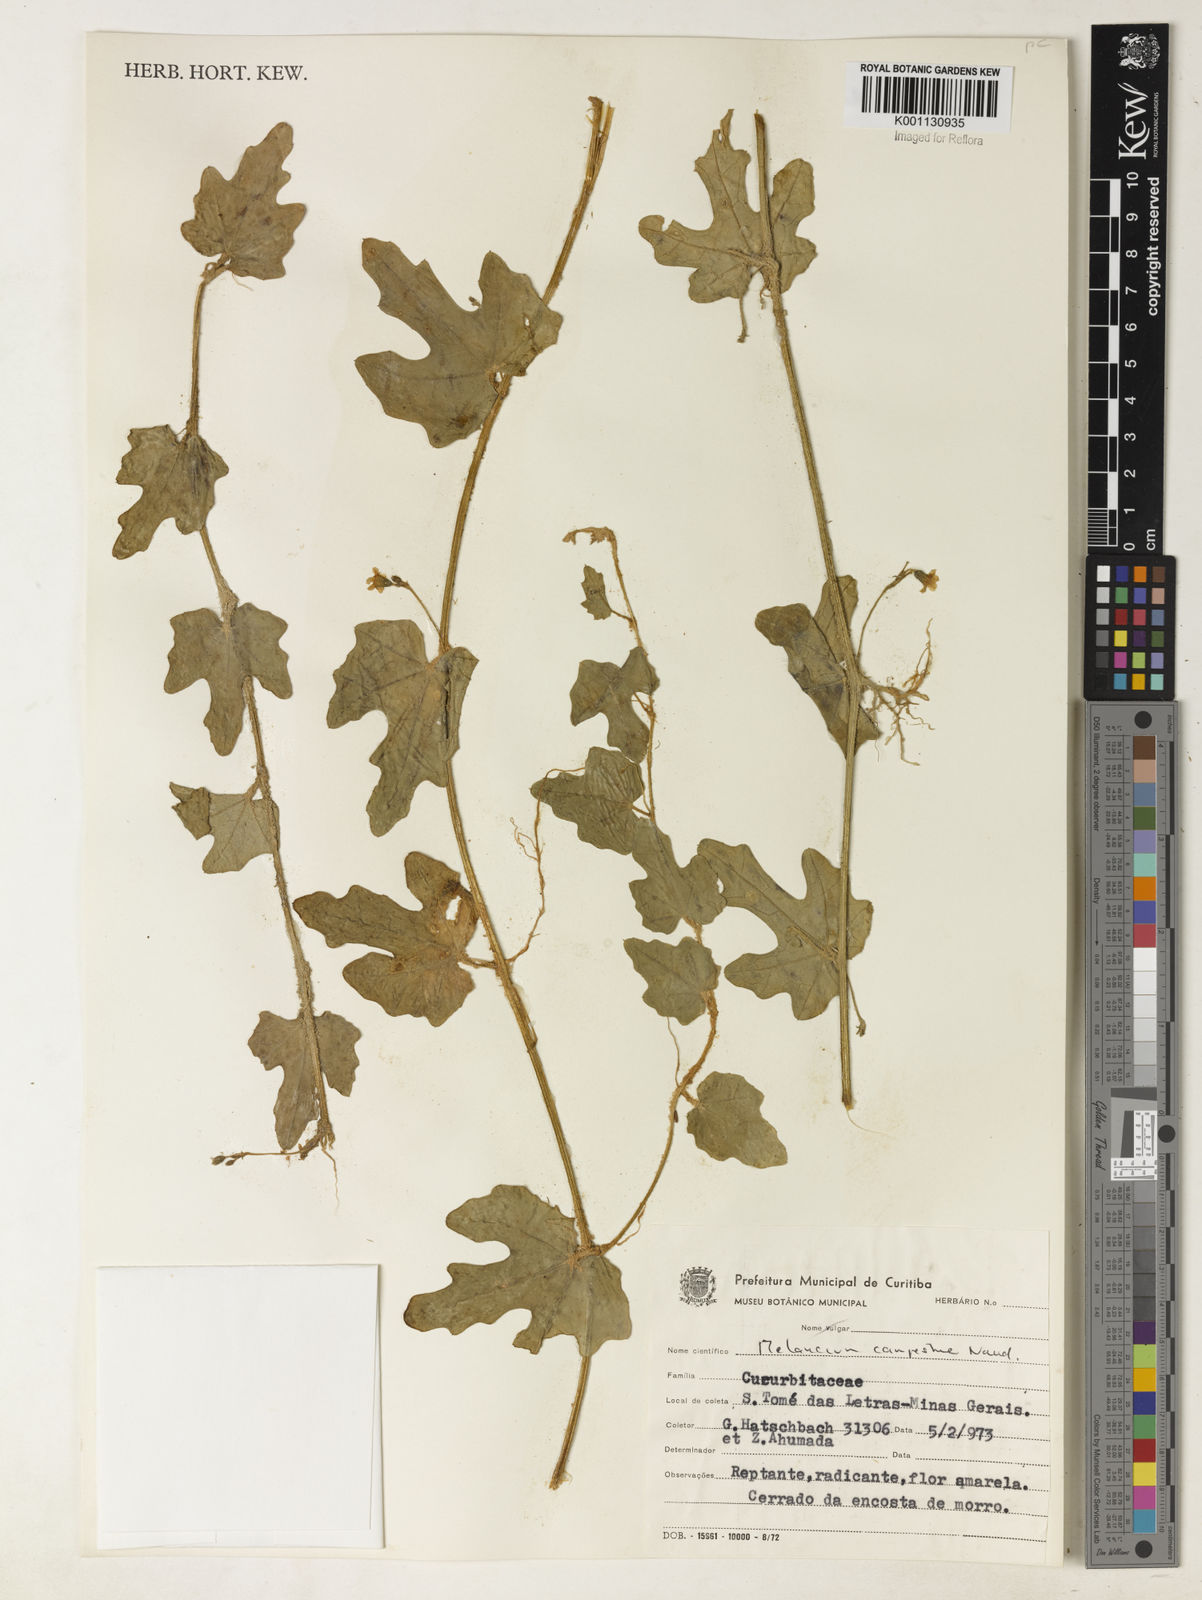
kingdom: Plantae
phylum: Tracheophyta
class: Magnoliopsida
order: Cucurbitales
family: Cucurbitaceae
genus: Melothria
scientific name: Melothria campestris
